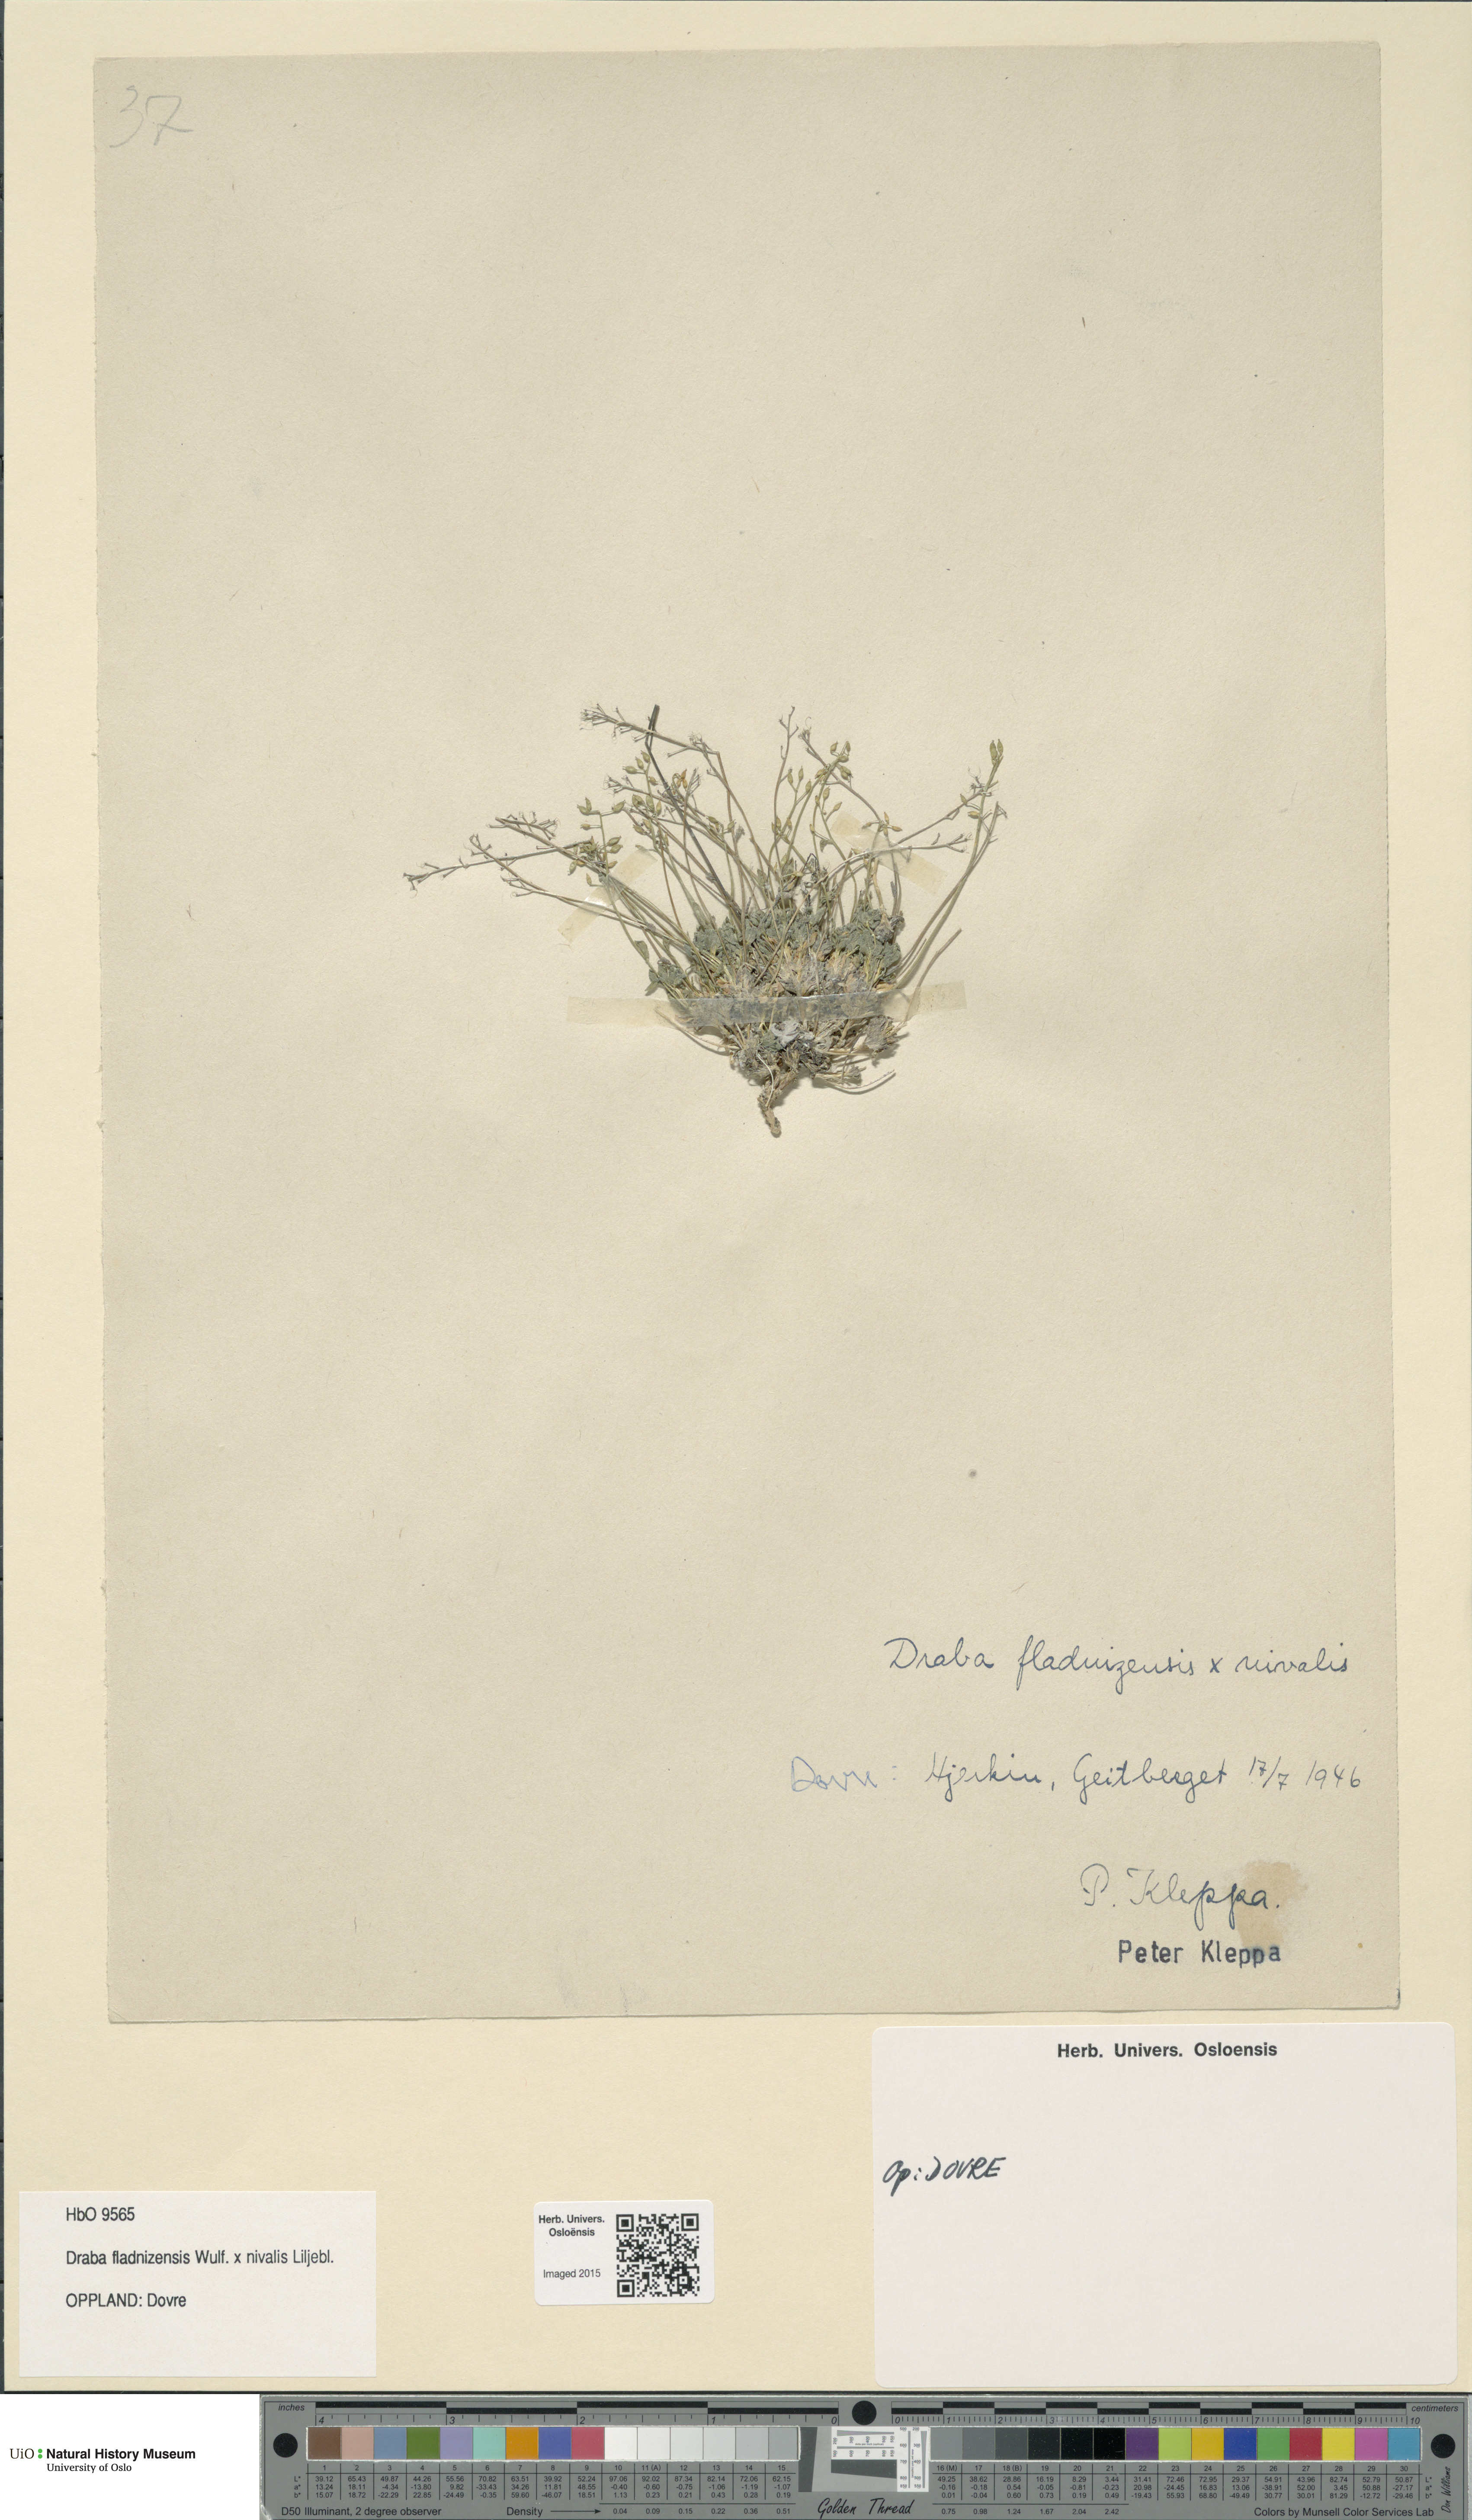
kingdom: Plantae
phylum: Tracheophyta
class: Magnoliopsida
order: Brassicales
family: Brassicaceae
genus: Draba
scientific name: Draba
